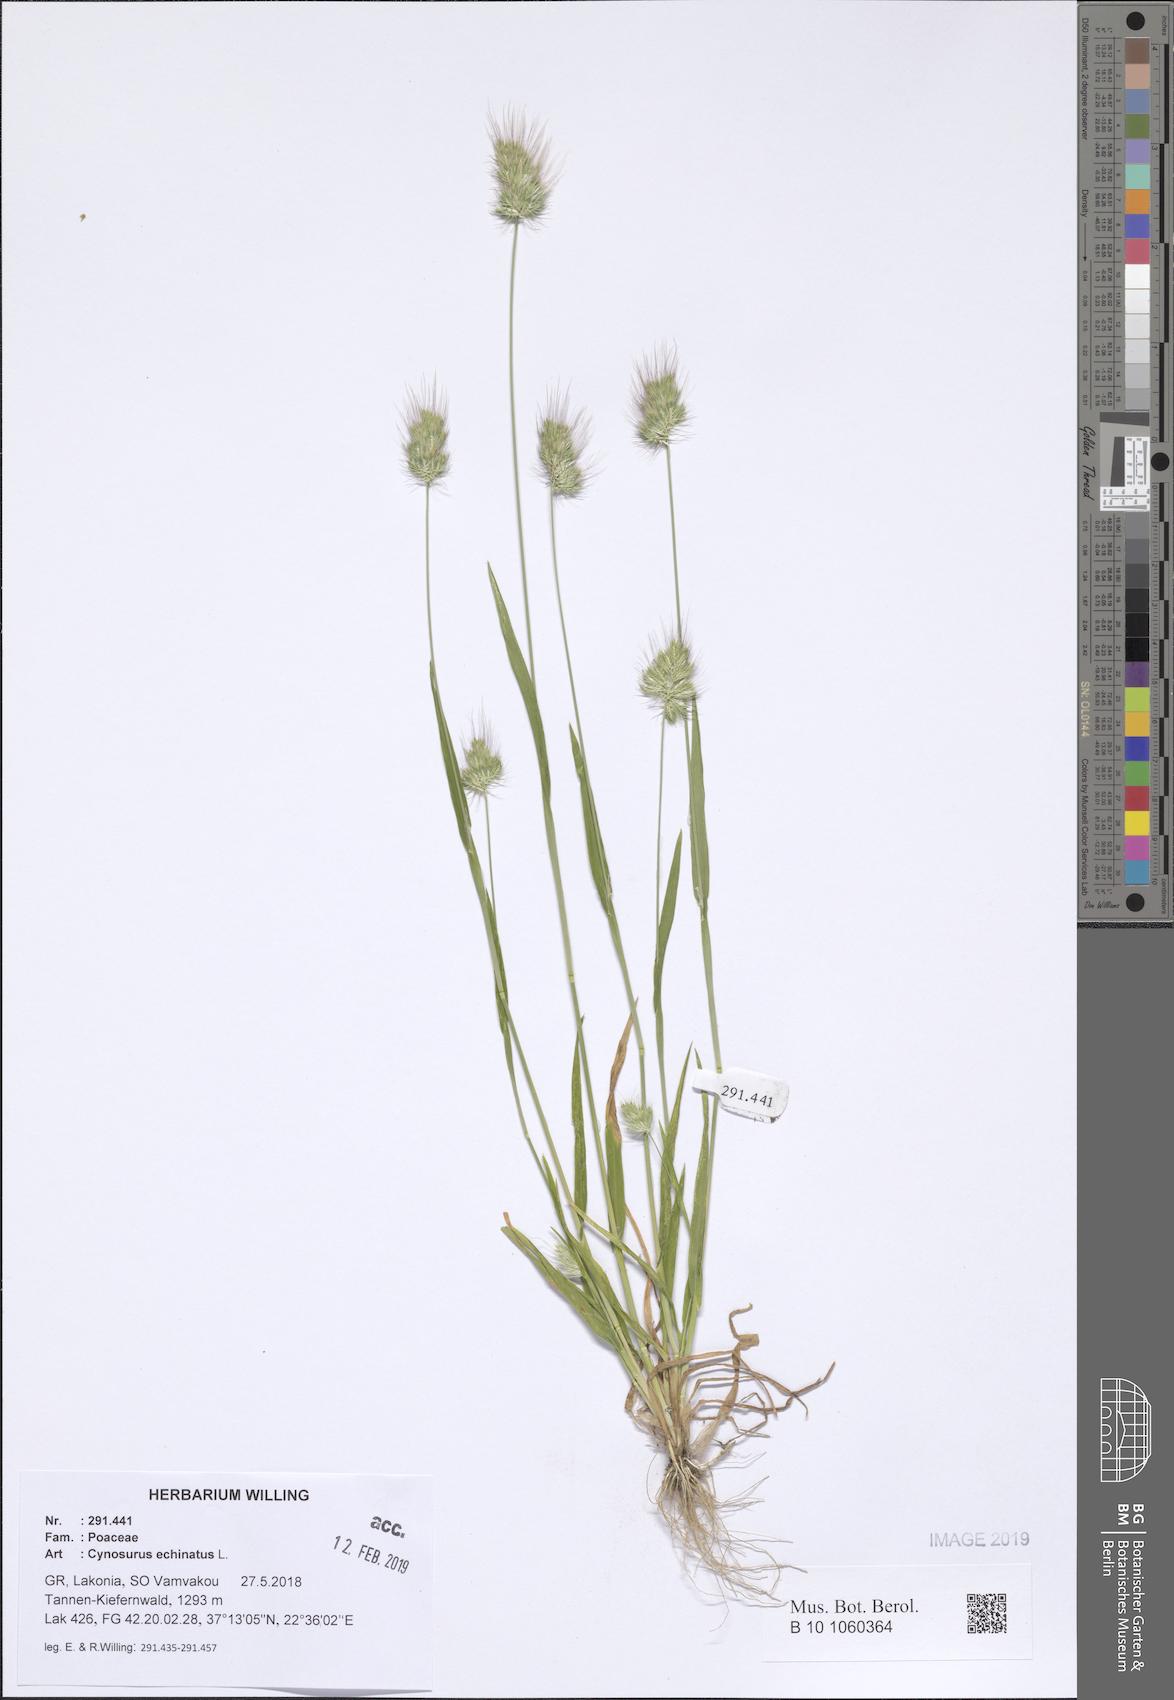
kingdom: Plantae
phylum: Tracheophyta
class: Liliopsida
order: Poales
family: Poaceae
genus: Cynosurus
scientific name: Cynosurus echinatus
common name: Rough dog's-tail
